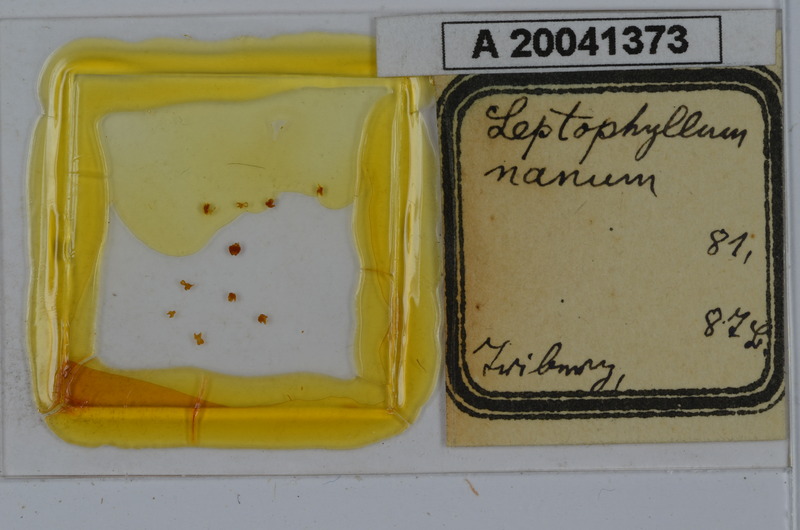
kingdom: Animalia
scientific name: Animalia
